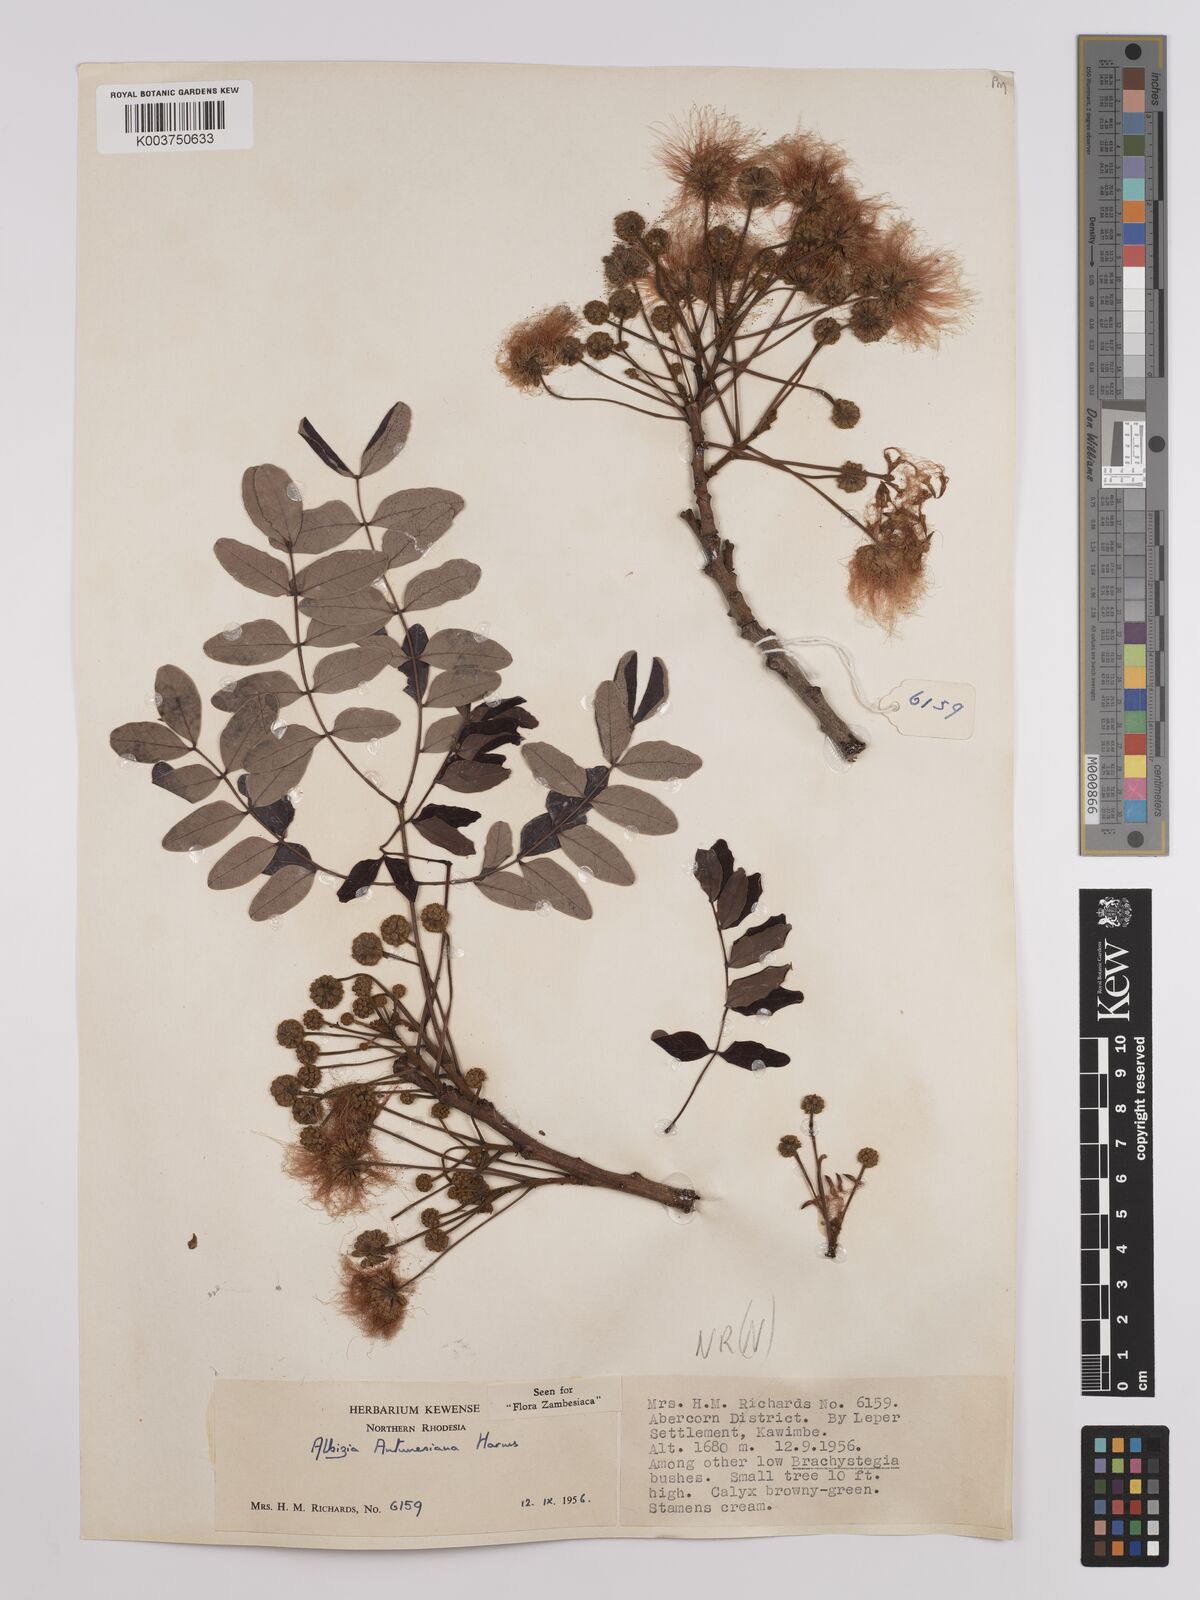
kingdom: Plantae
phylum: Tracheophyta
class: Magnoliopsida
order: Fabales
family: Fabaceae
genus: Albizia
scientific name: Albizia antunesiana
